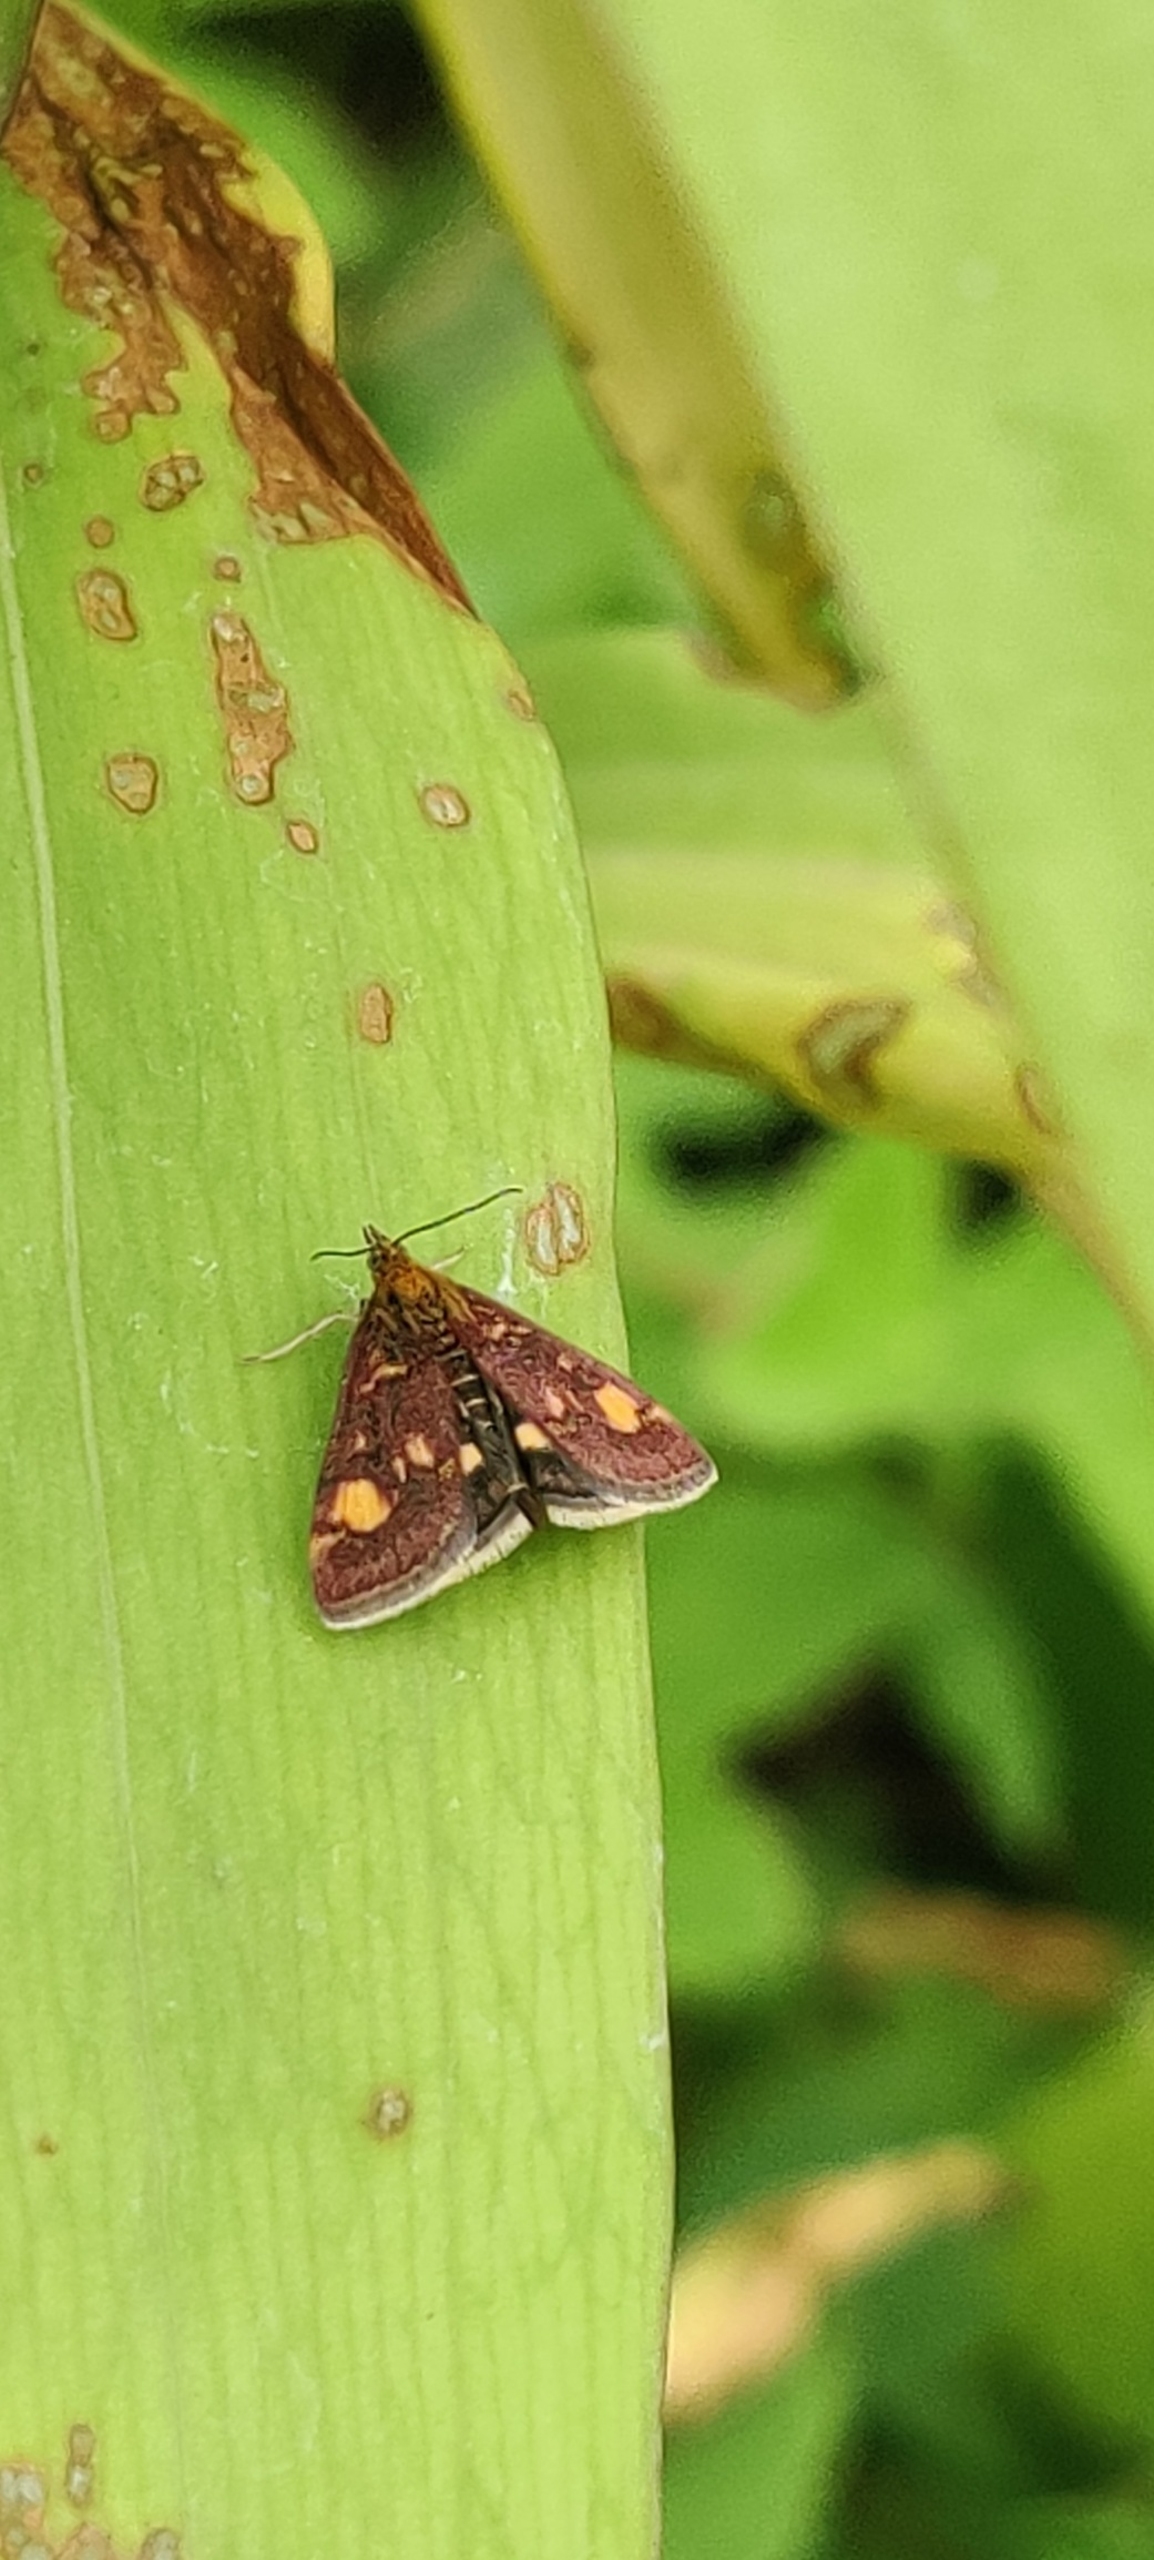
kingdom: Animalia
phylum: Arthropoda
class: Insecta
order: Lepidoptera
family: Crambidae
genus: Pyrausta
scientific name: Pyrausta aurata
